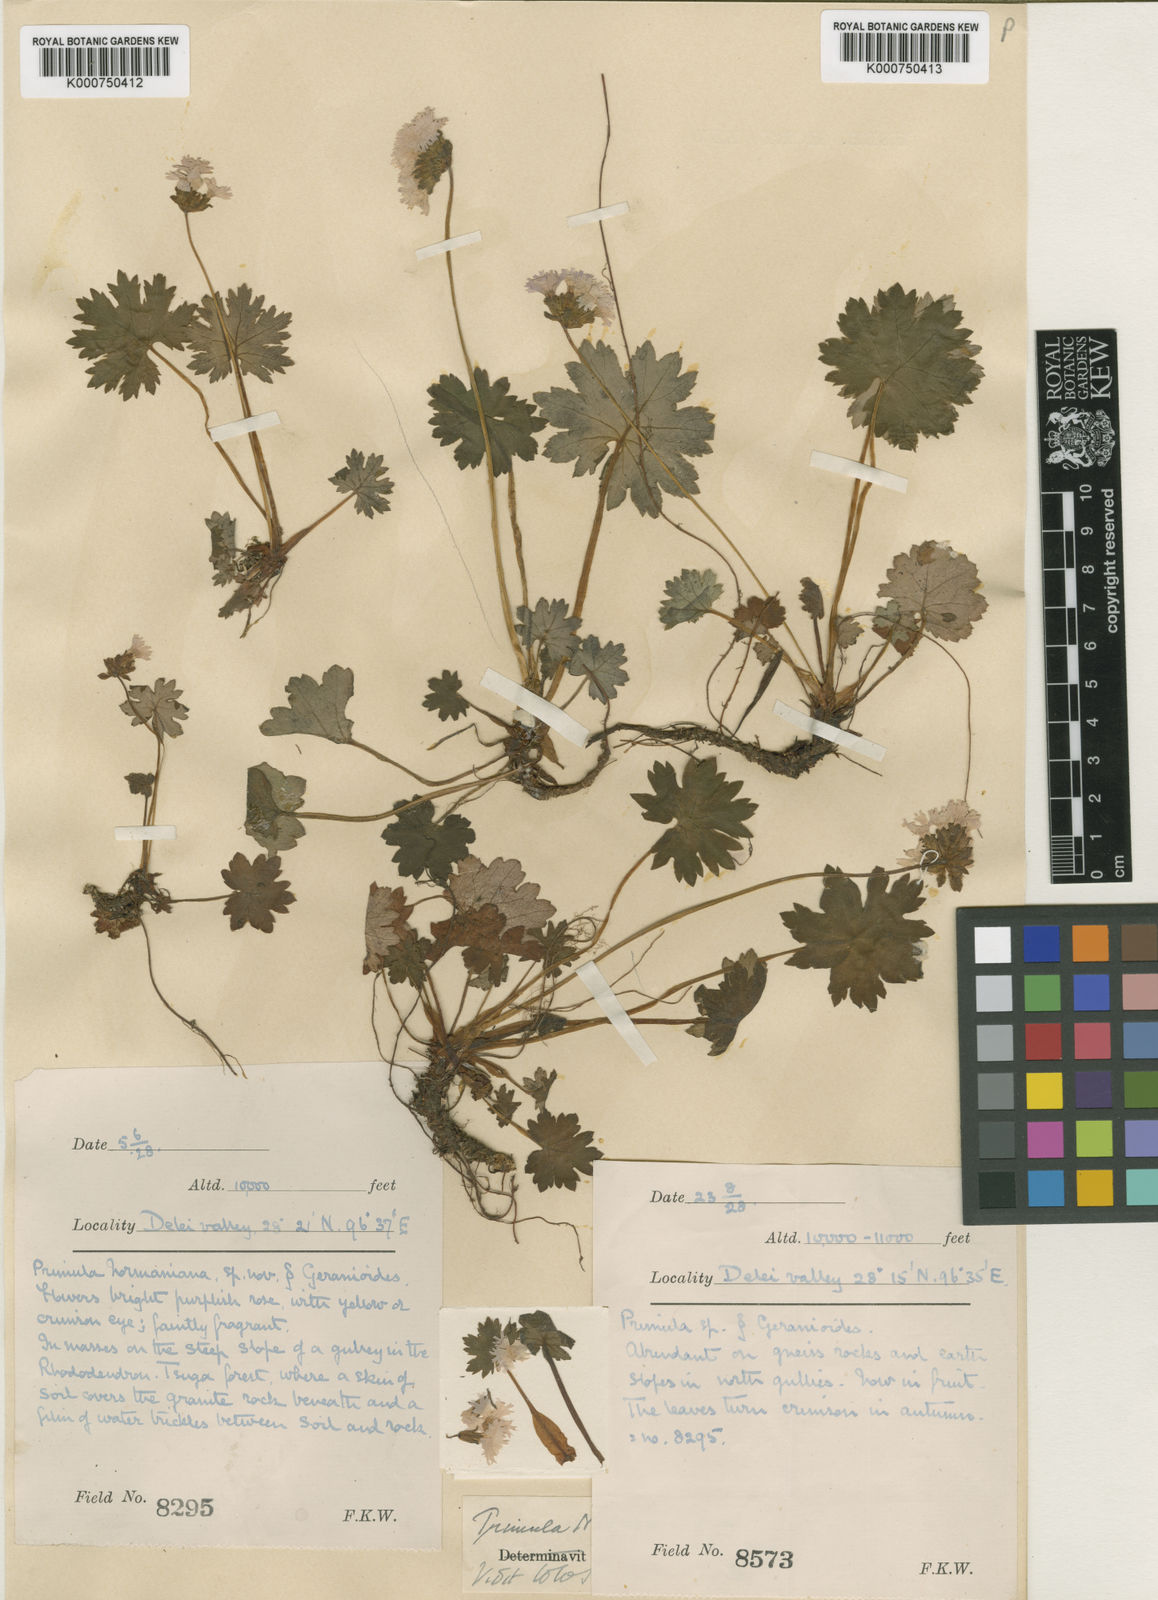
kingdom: Plantae
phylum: Tracheophyta
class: Magnoliopsida
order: Ericales
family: Primulaceae
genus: Primula
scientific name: Primula normaniana
